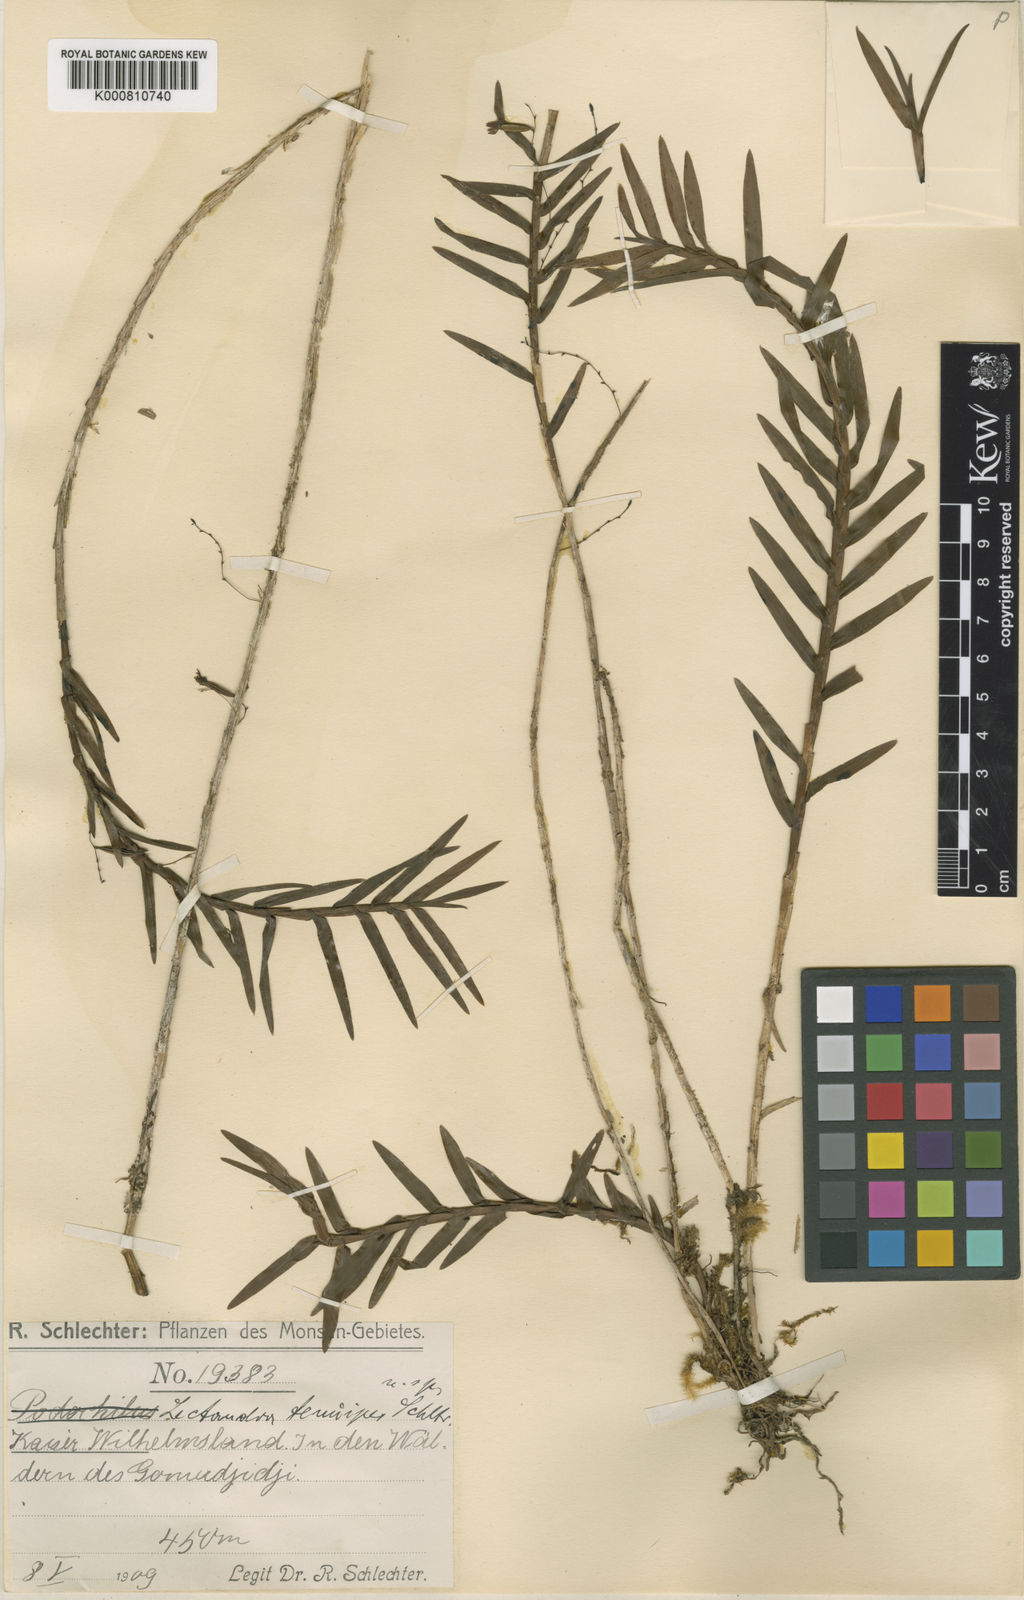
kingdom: Plantae
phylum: Tracheophyta
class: Liliopsida
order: Asparagales
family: Orchidaceae
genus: Poaephyllum
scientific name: Poaephyllum tenuipes
